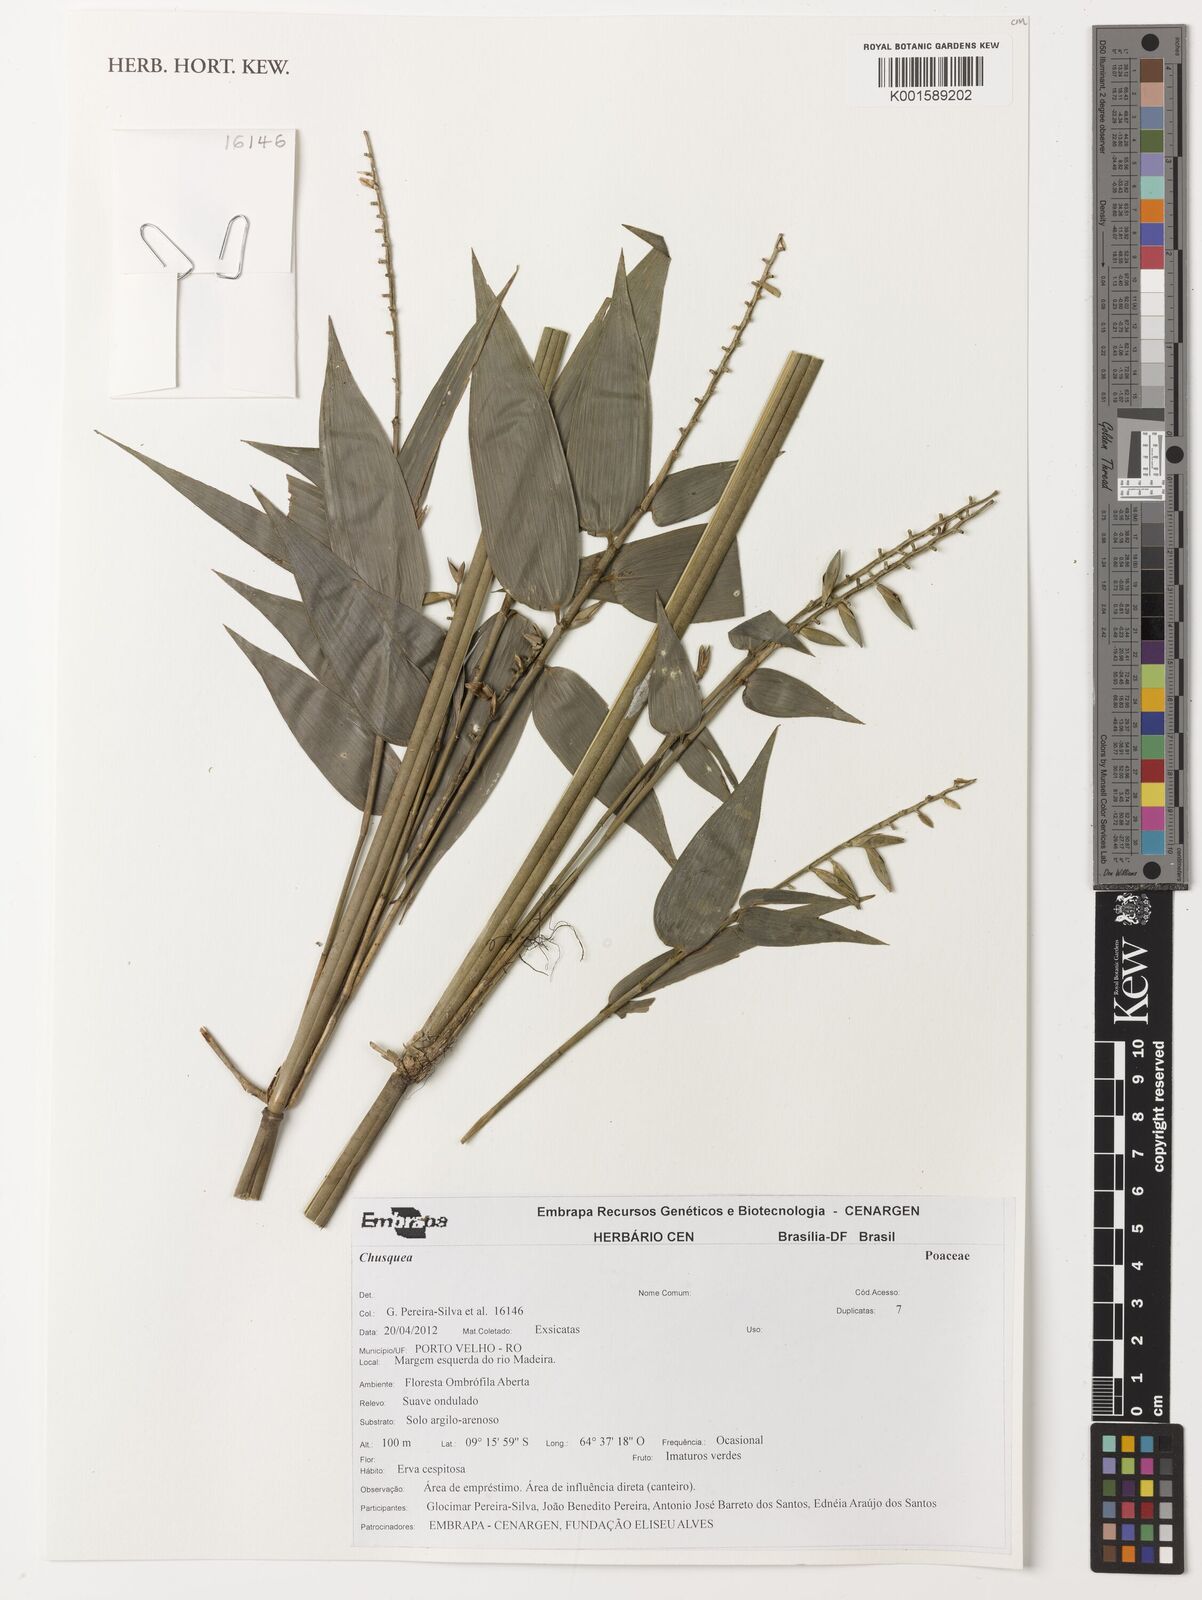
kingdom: Plantae
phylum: Tracheophyta
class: Liliopsida
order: Poales
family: Poaceae
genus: Chusquea
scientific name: Chusquea
